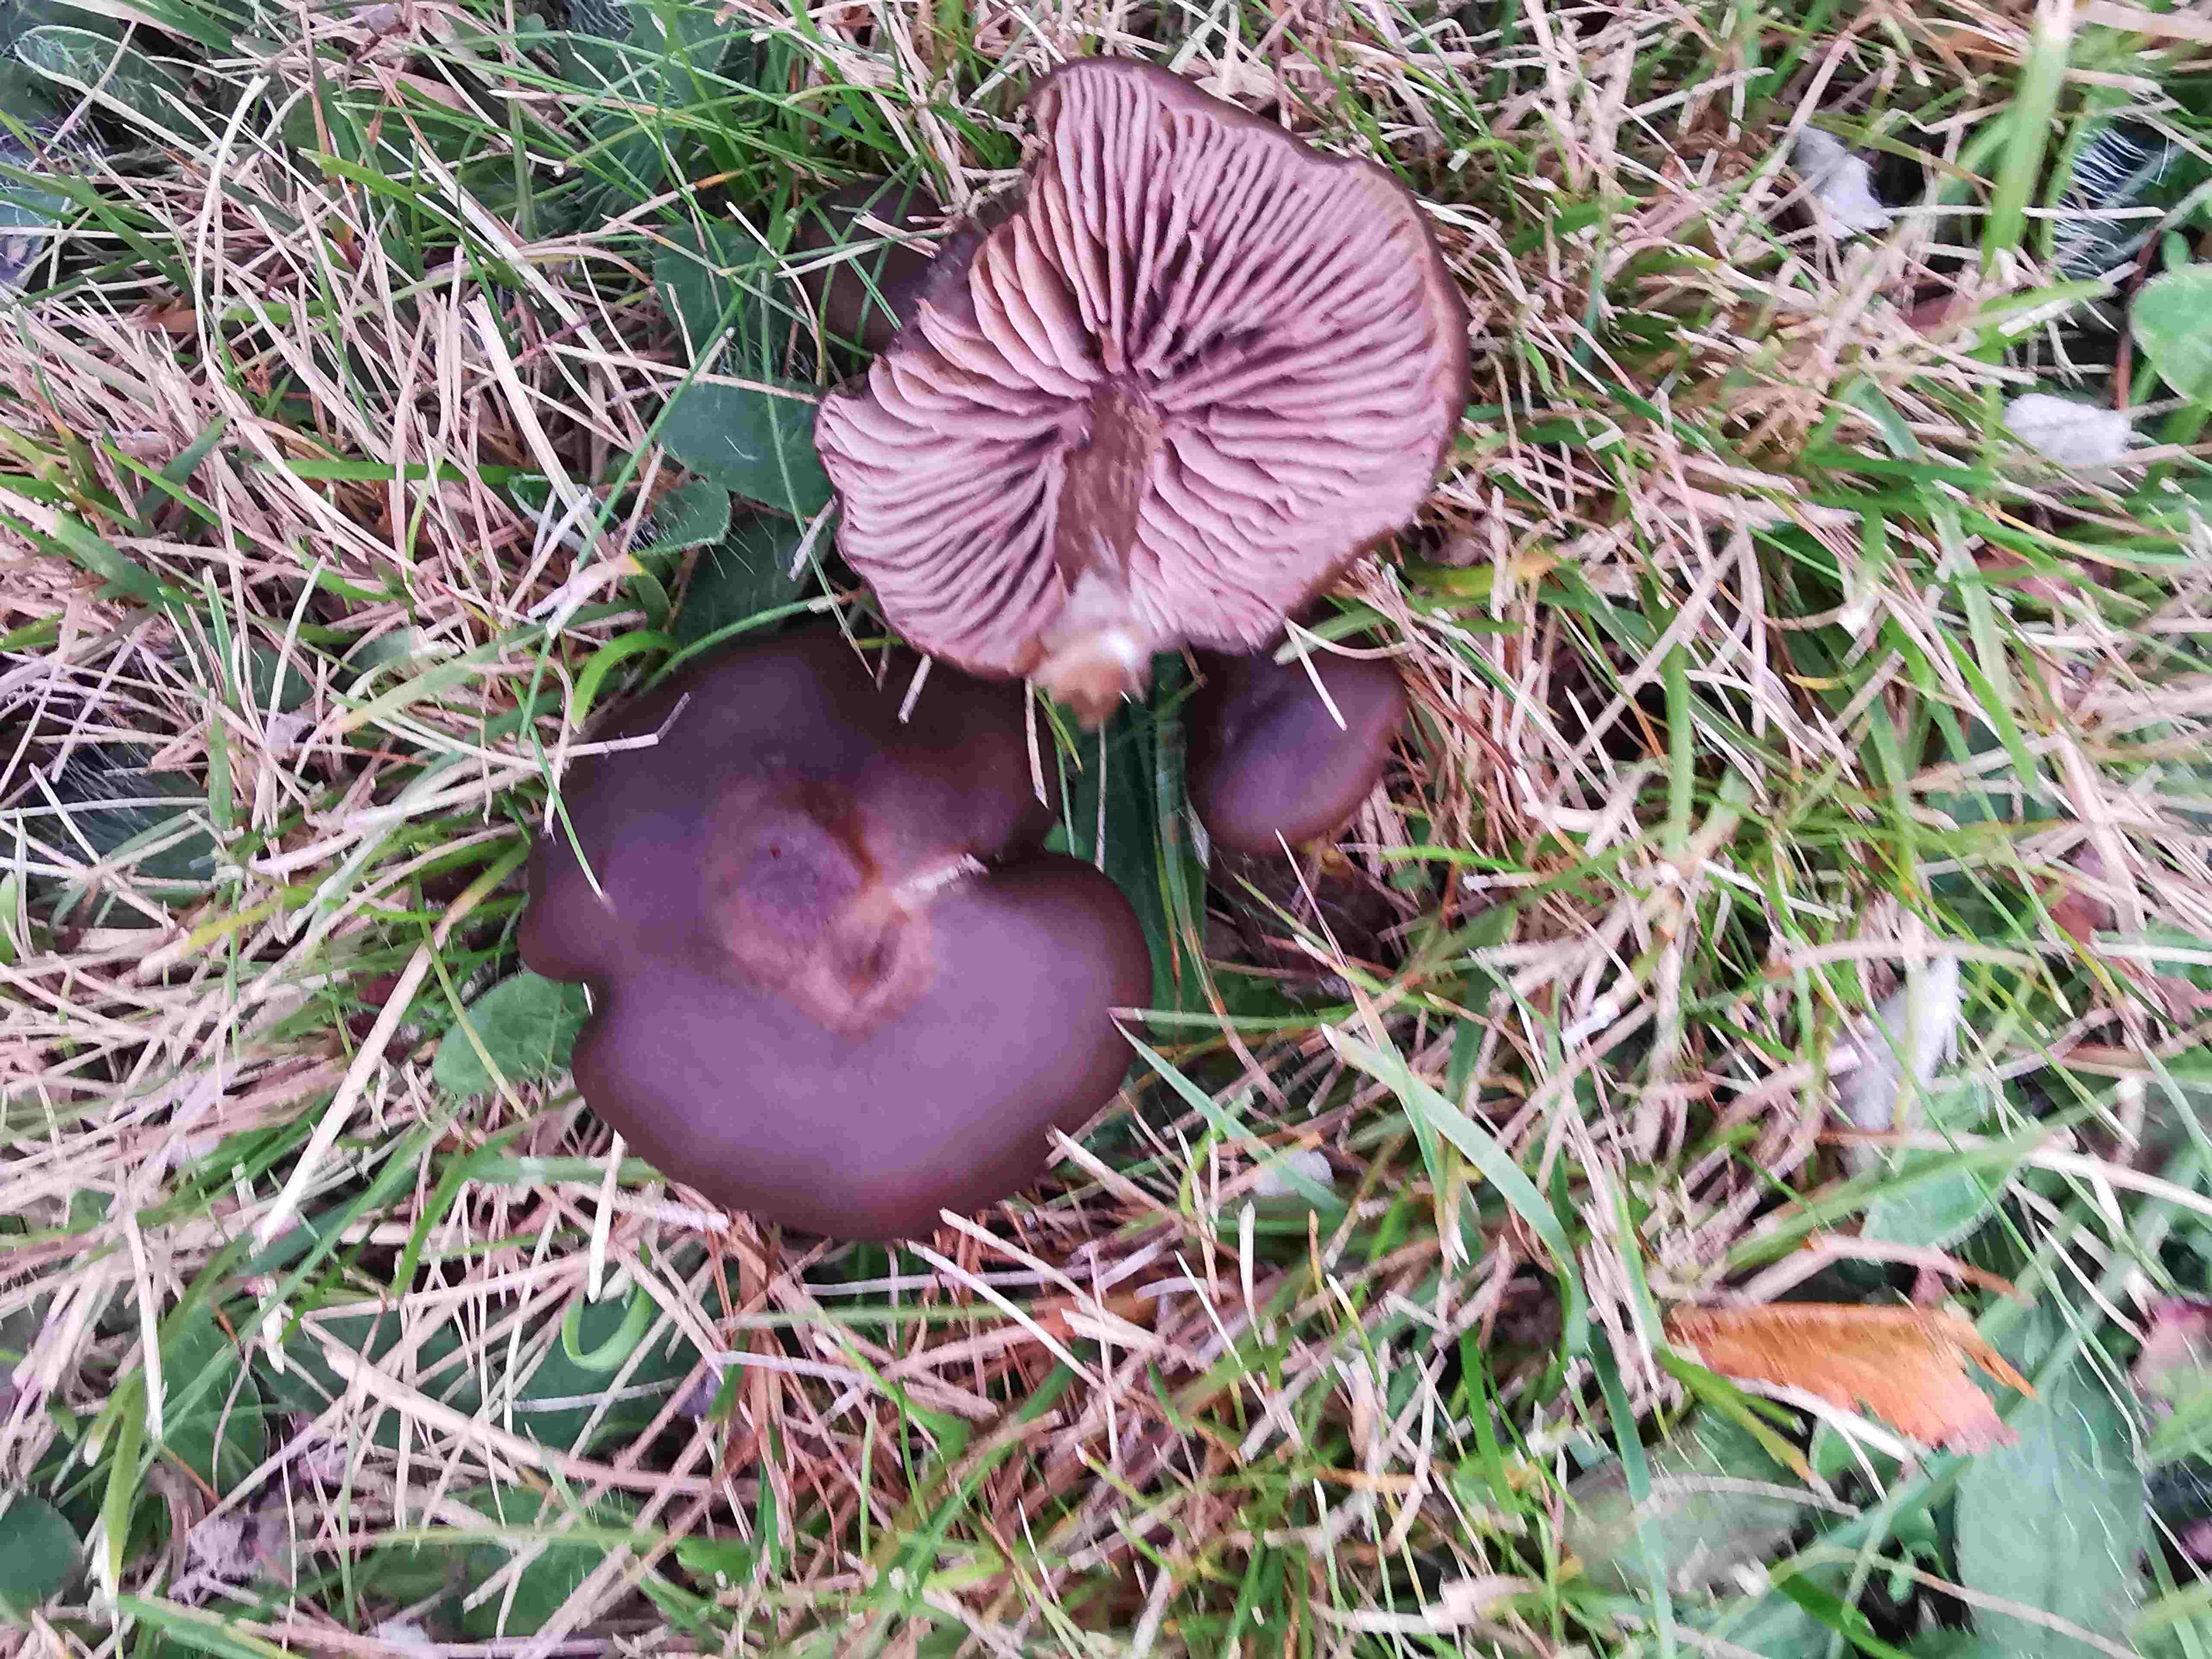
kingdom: Fungi
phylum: Basidiomycota
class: Agaricomycetes
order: Agaricales
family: Entolomataceae
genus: Entoloma
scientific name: Entoloma
